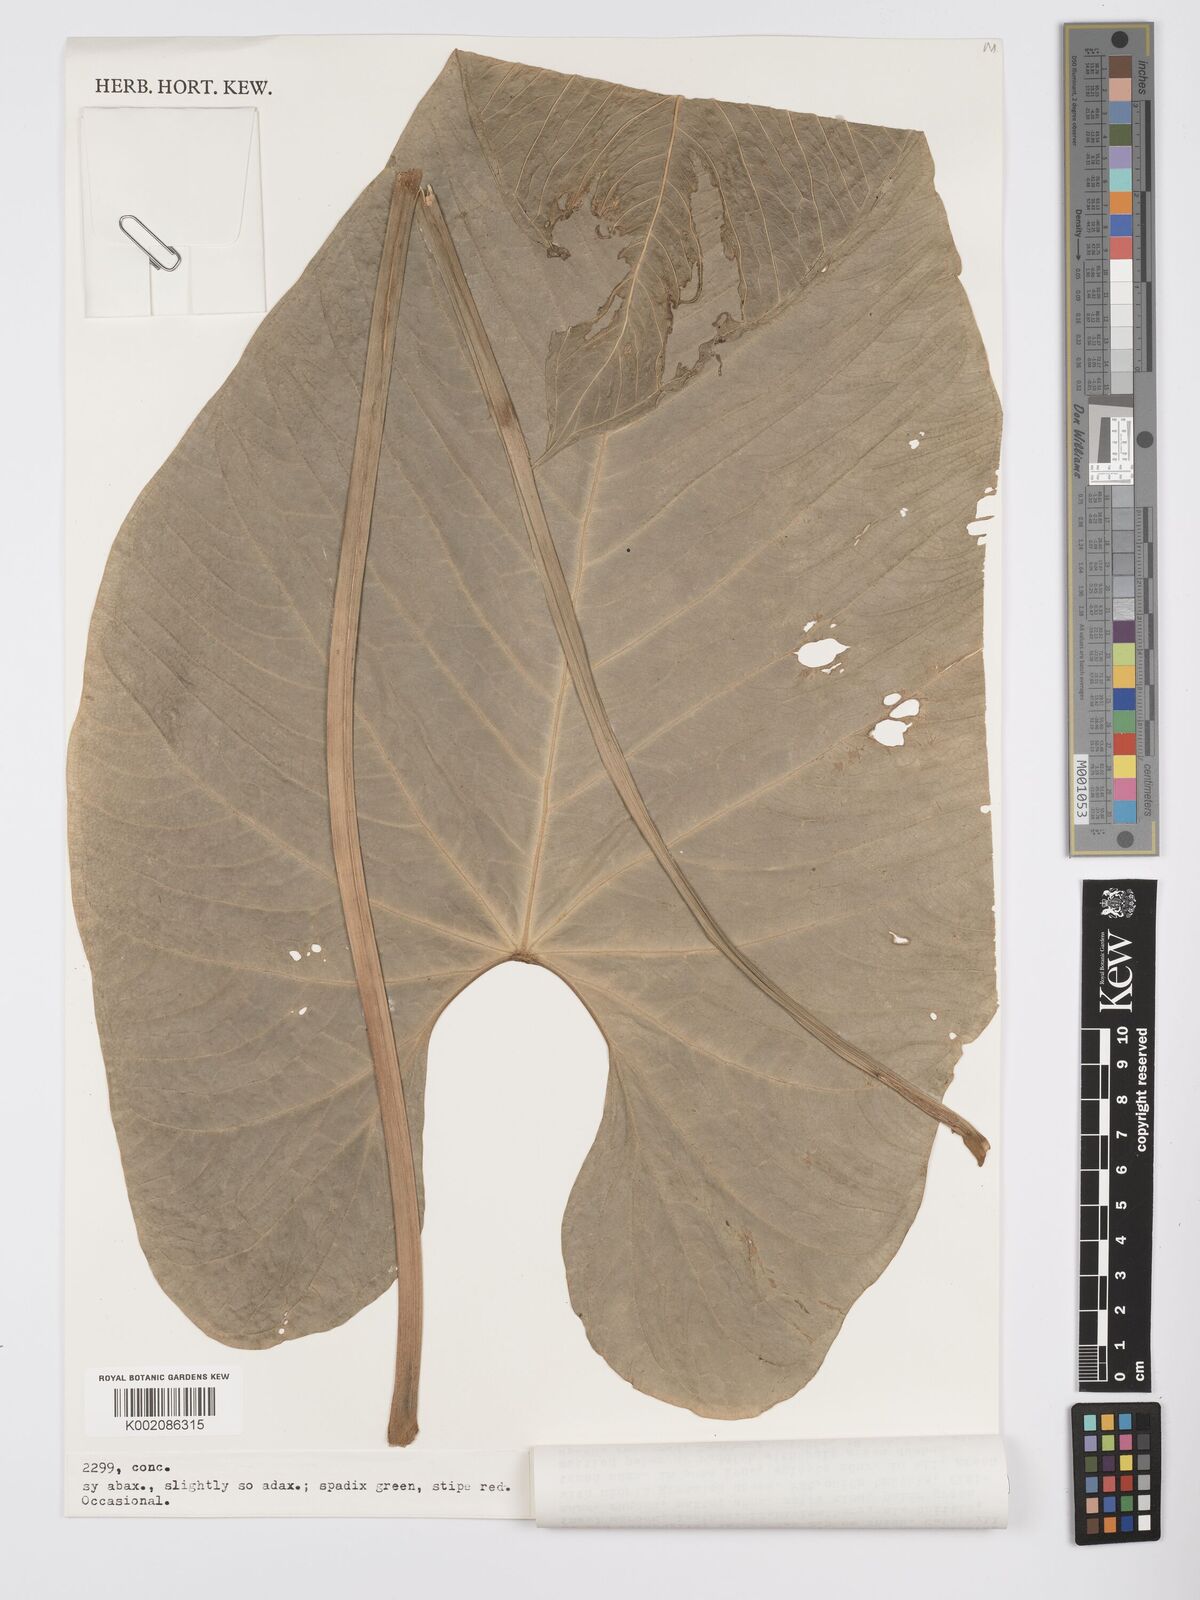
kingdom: Plantae
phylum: Tracheophyta
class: Liliopsida
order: Alismatales
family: Araceae
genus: Anthurium
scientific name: Anthurium julianii
